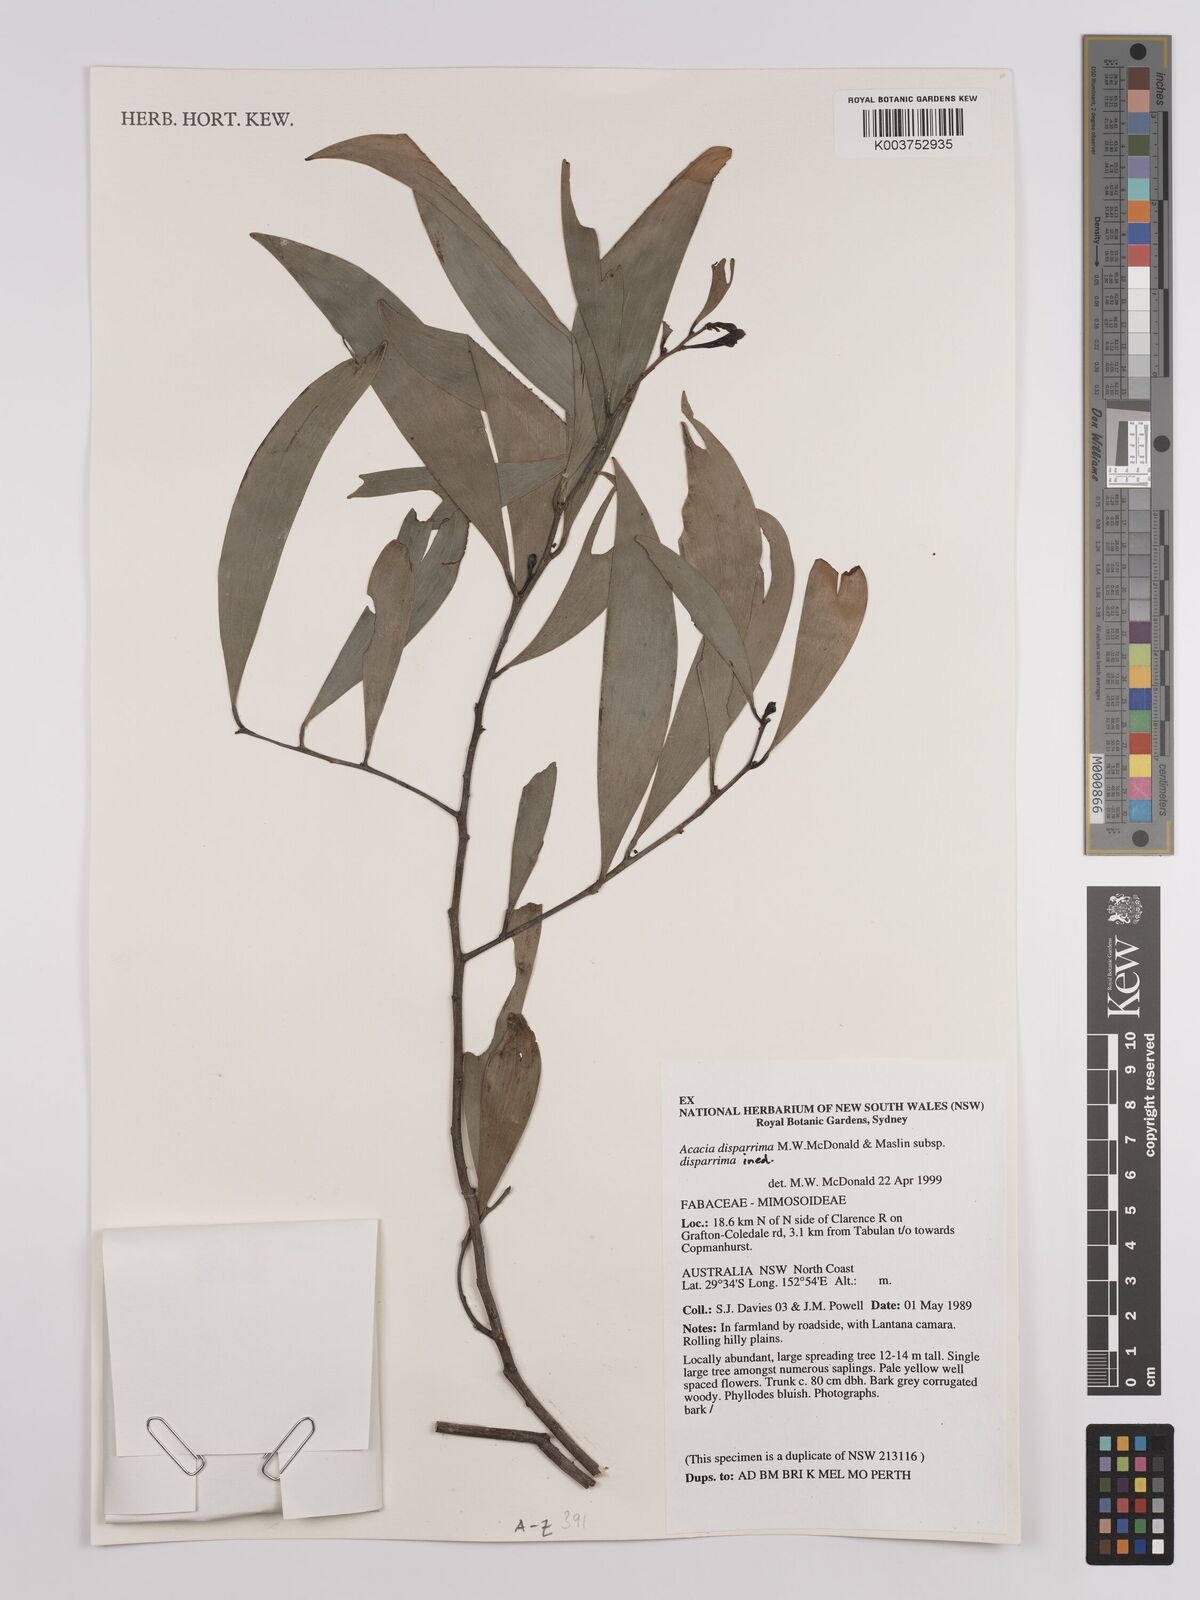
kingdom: Plantae
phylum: Tracheophyta
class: Magnoliopsida
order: Fabales
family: Fabaceae
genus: Acacia
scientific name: Acacia disparrima
